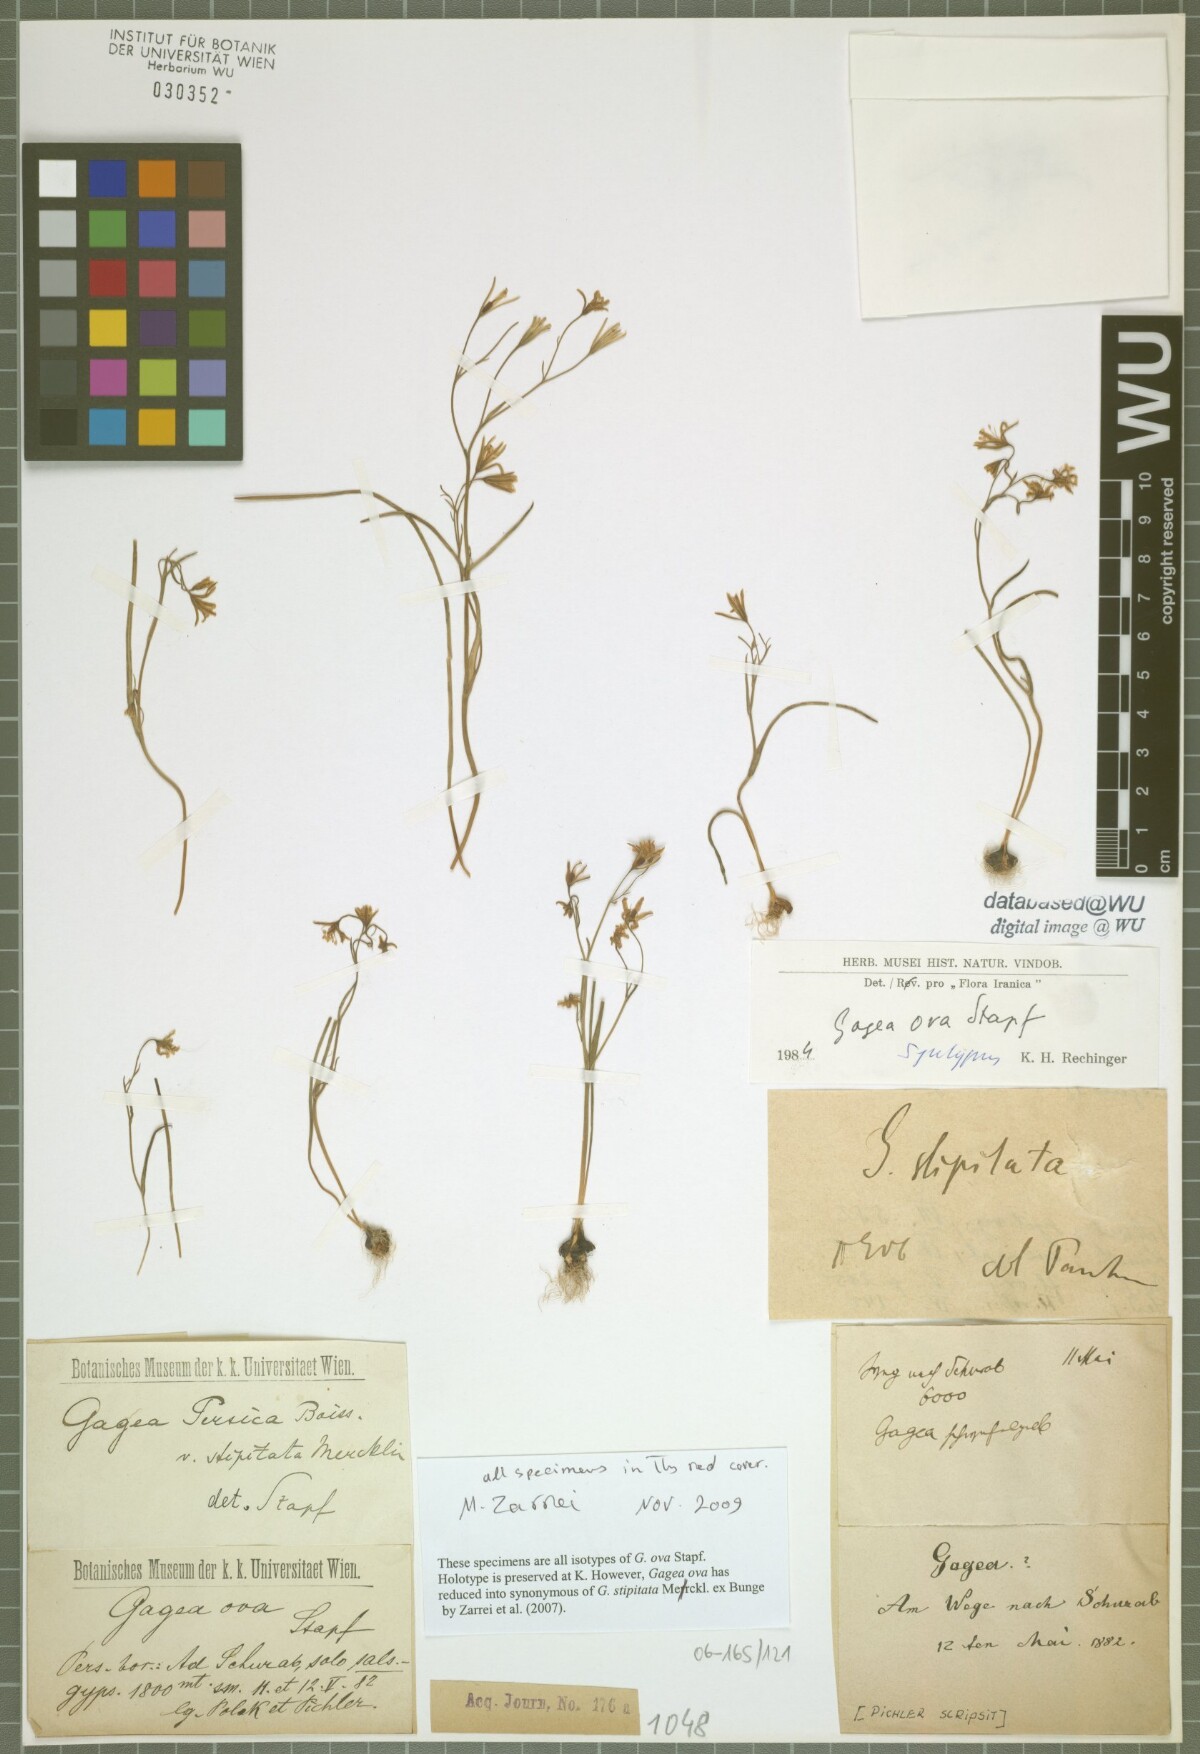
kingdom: Plantae
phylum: Tracheophyta
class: Liliopsida
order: Liliales
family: Liliaceae
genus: Gagea
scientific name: Gagea kunawurensis
